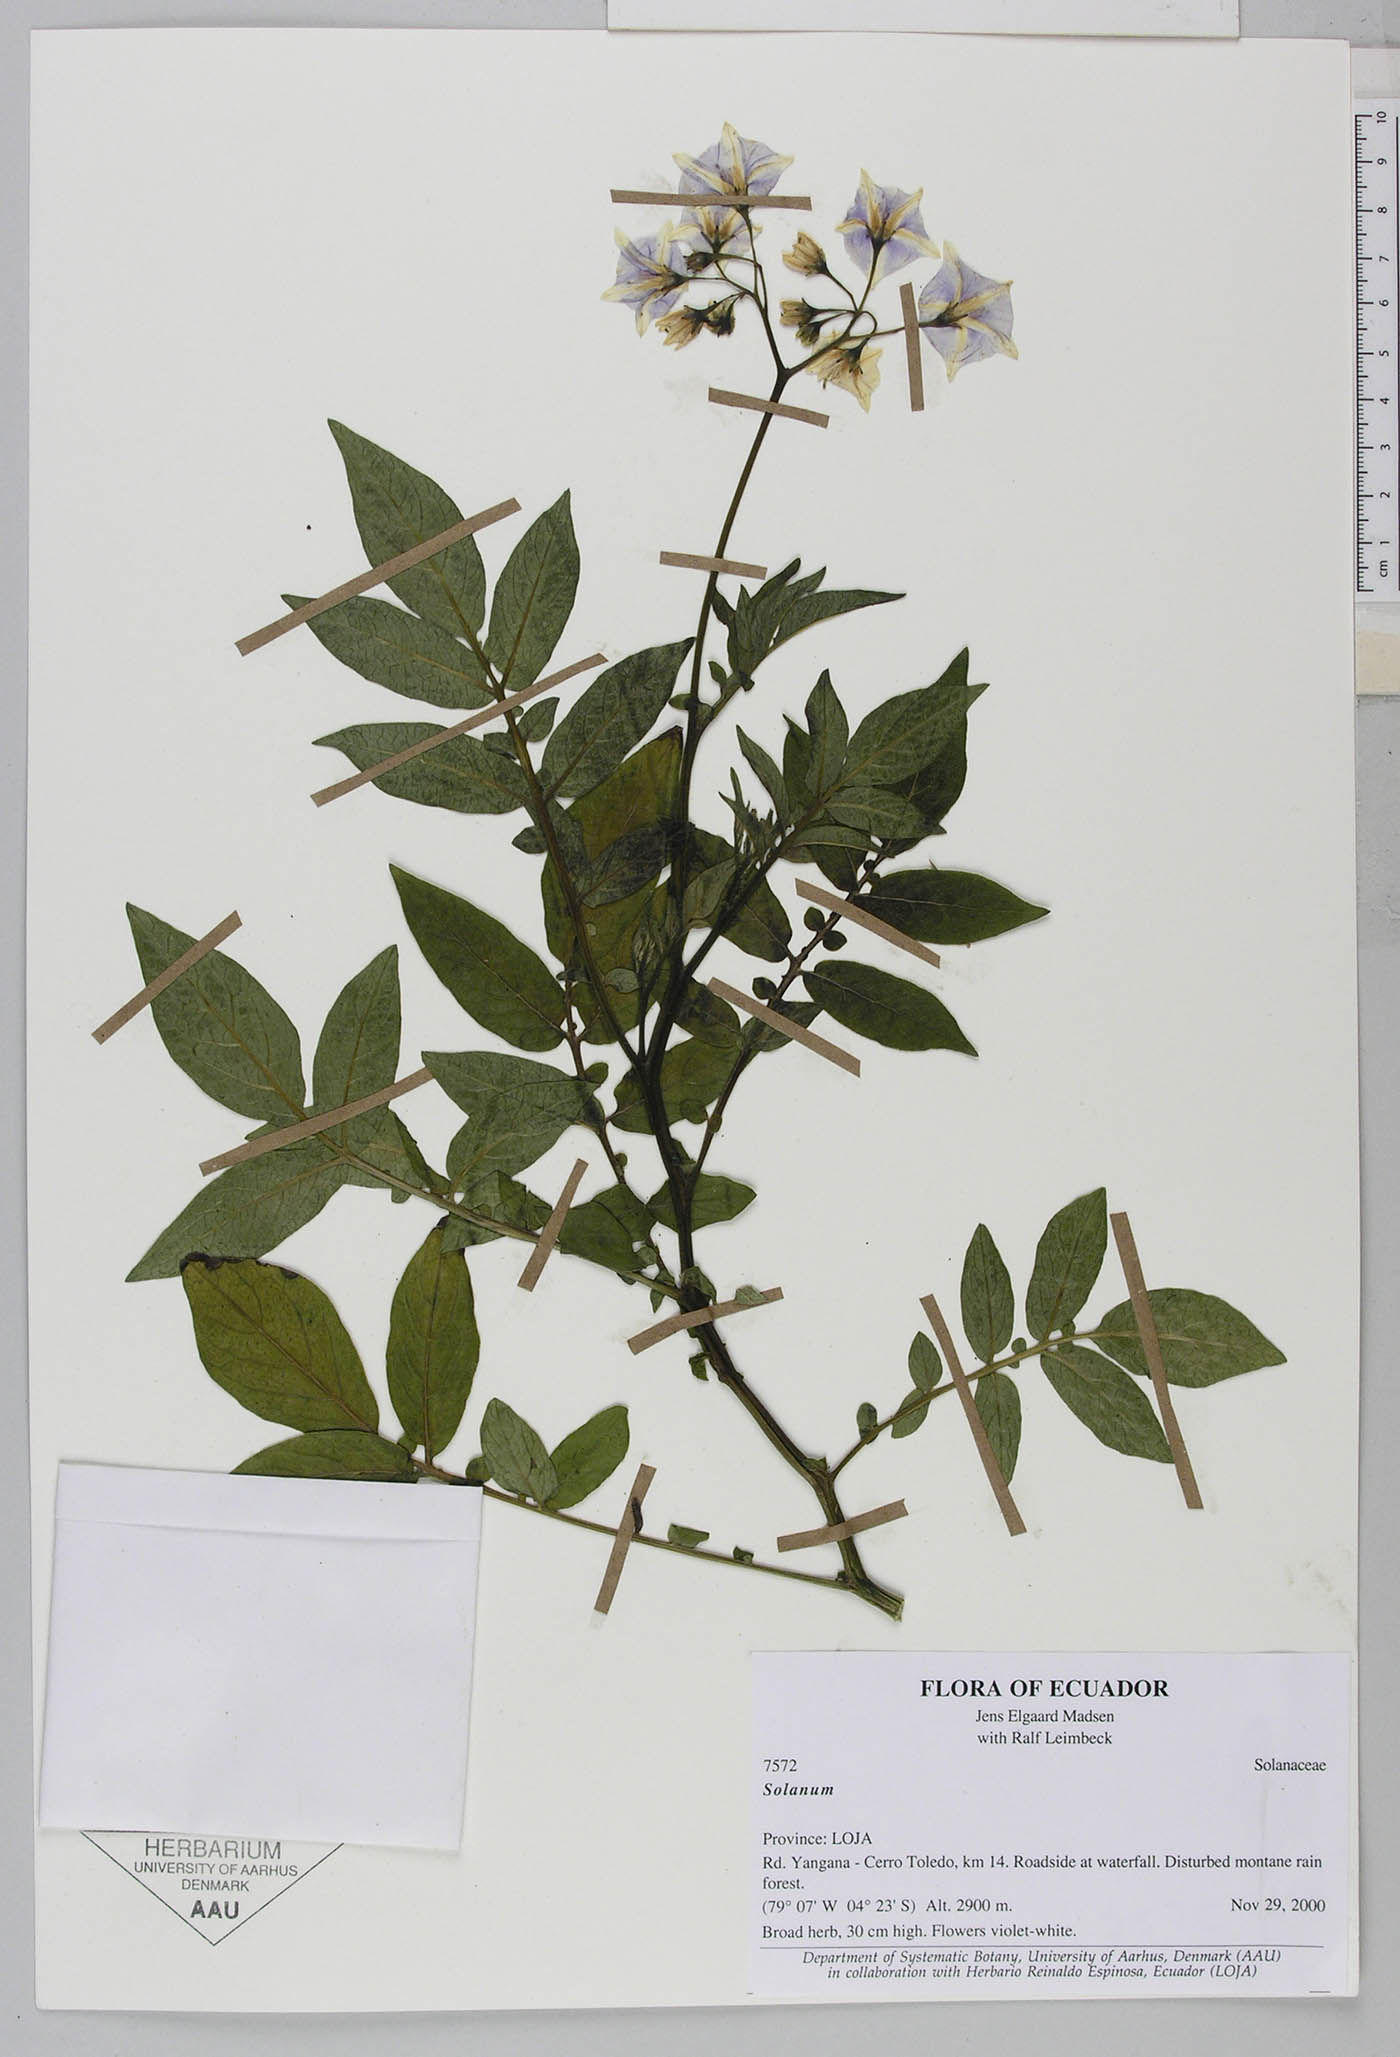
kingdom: Plantae
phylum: Tracheophyta
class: Magnoliopsida
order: Solanales
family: Solanaceae
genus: Solanum
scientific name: Solanum
